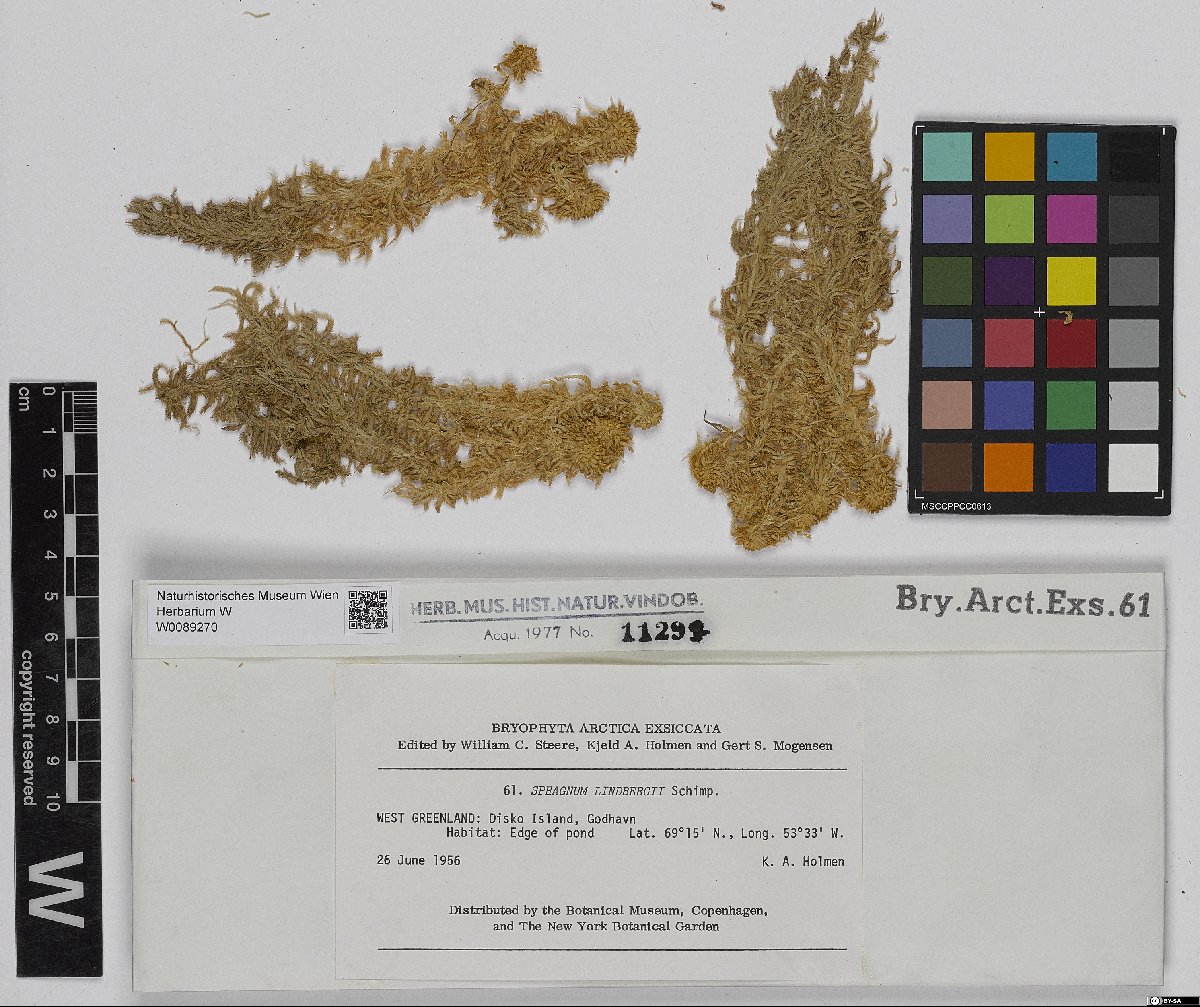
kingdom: Plantae
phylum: Bryophyta
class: Sphagnopsida
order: Sphagnales
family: Sphagnaceae
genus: Sphagnum
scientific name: Sphagnum lindbergii
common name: Lindberg's peat moss
